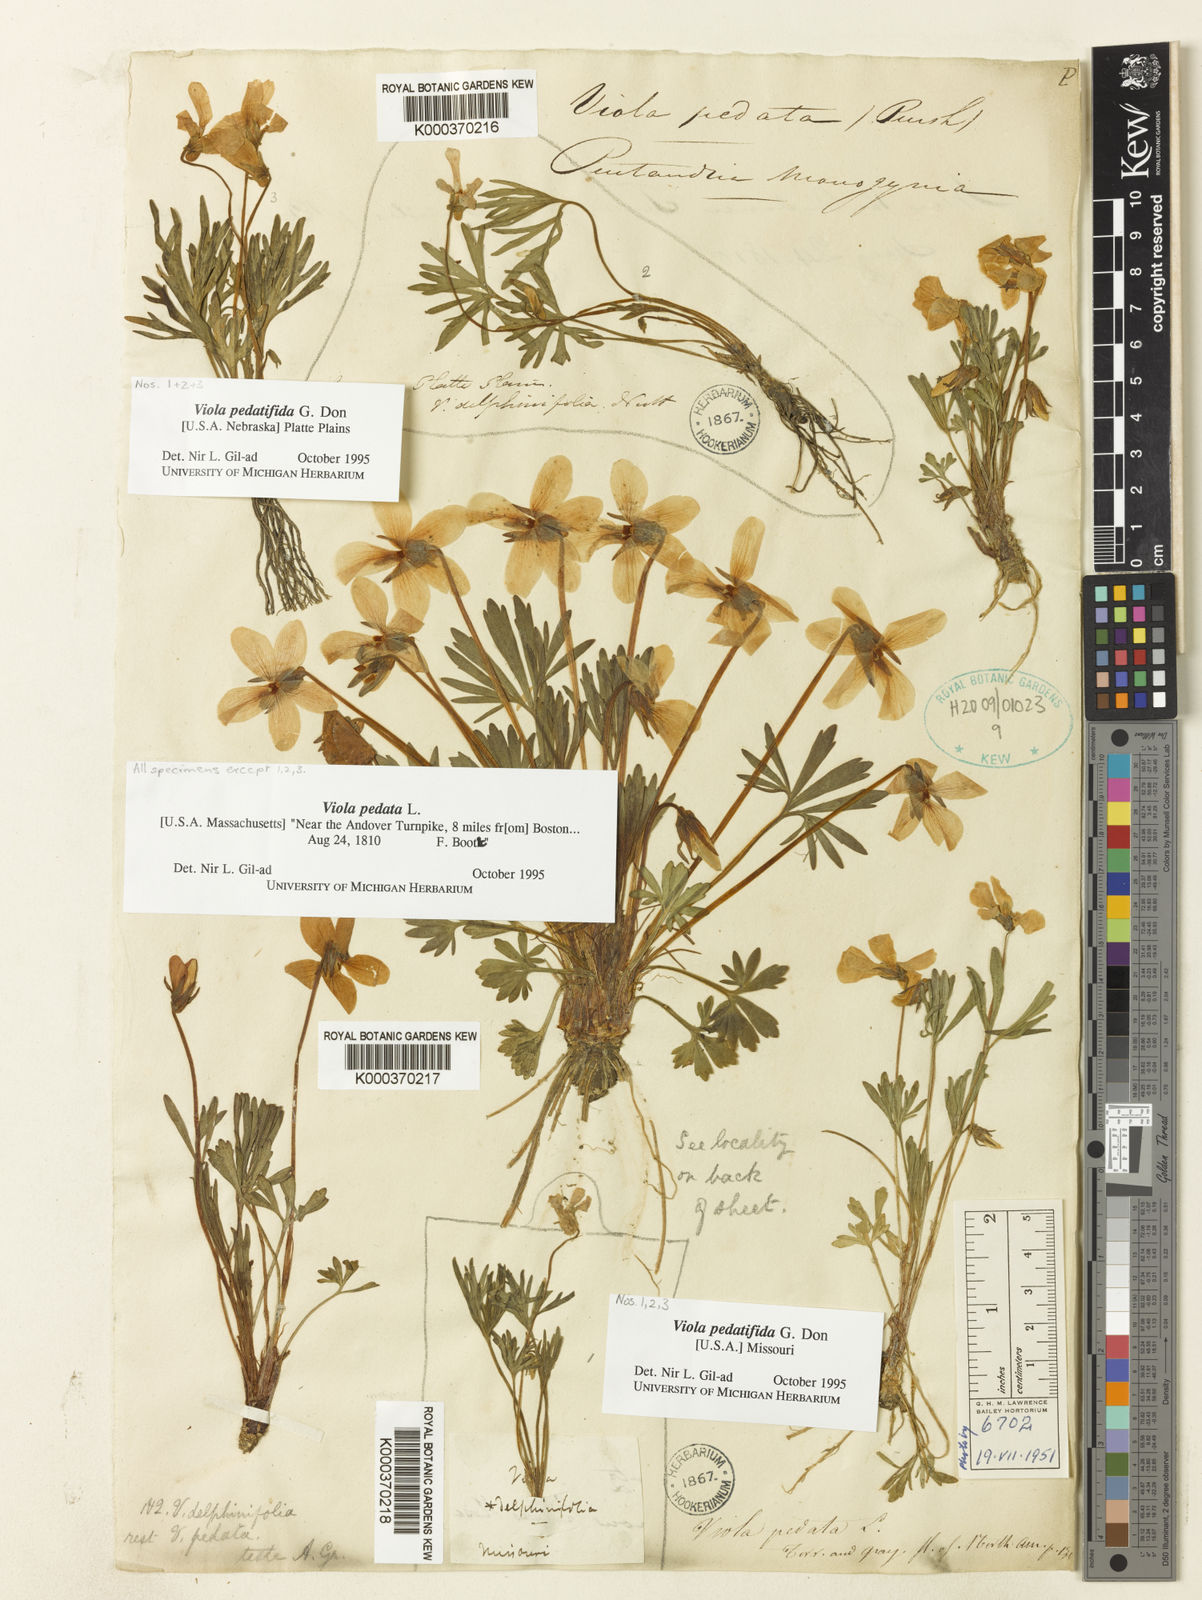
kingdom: Plantae
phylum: Tracheophyta
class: Magnoliopsida
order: Malpighiales
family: Violaceae
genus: Viola
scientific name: Viola pedata
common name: Pansy violet
